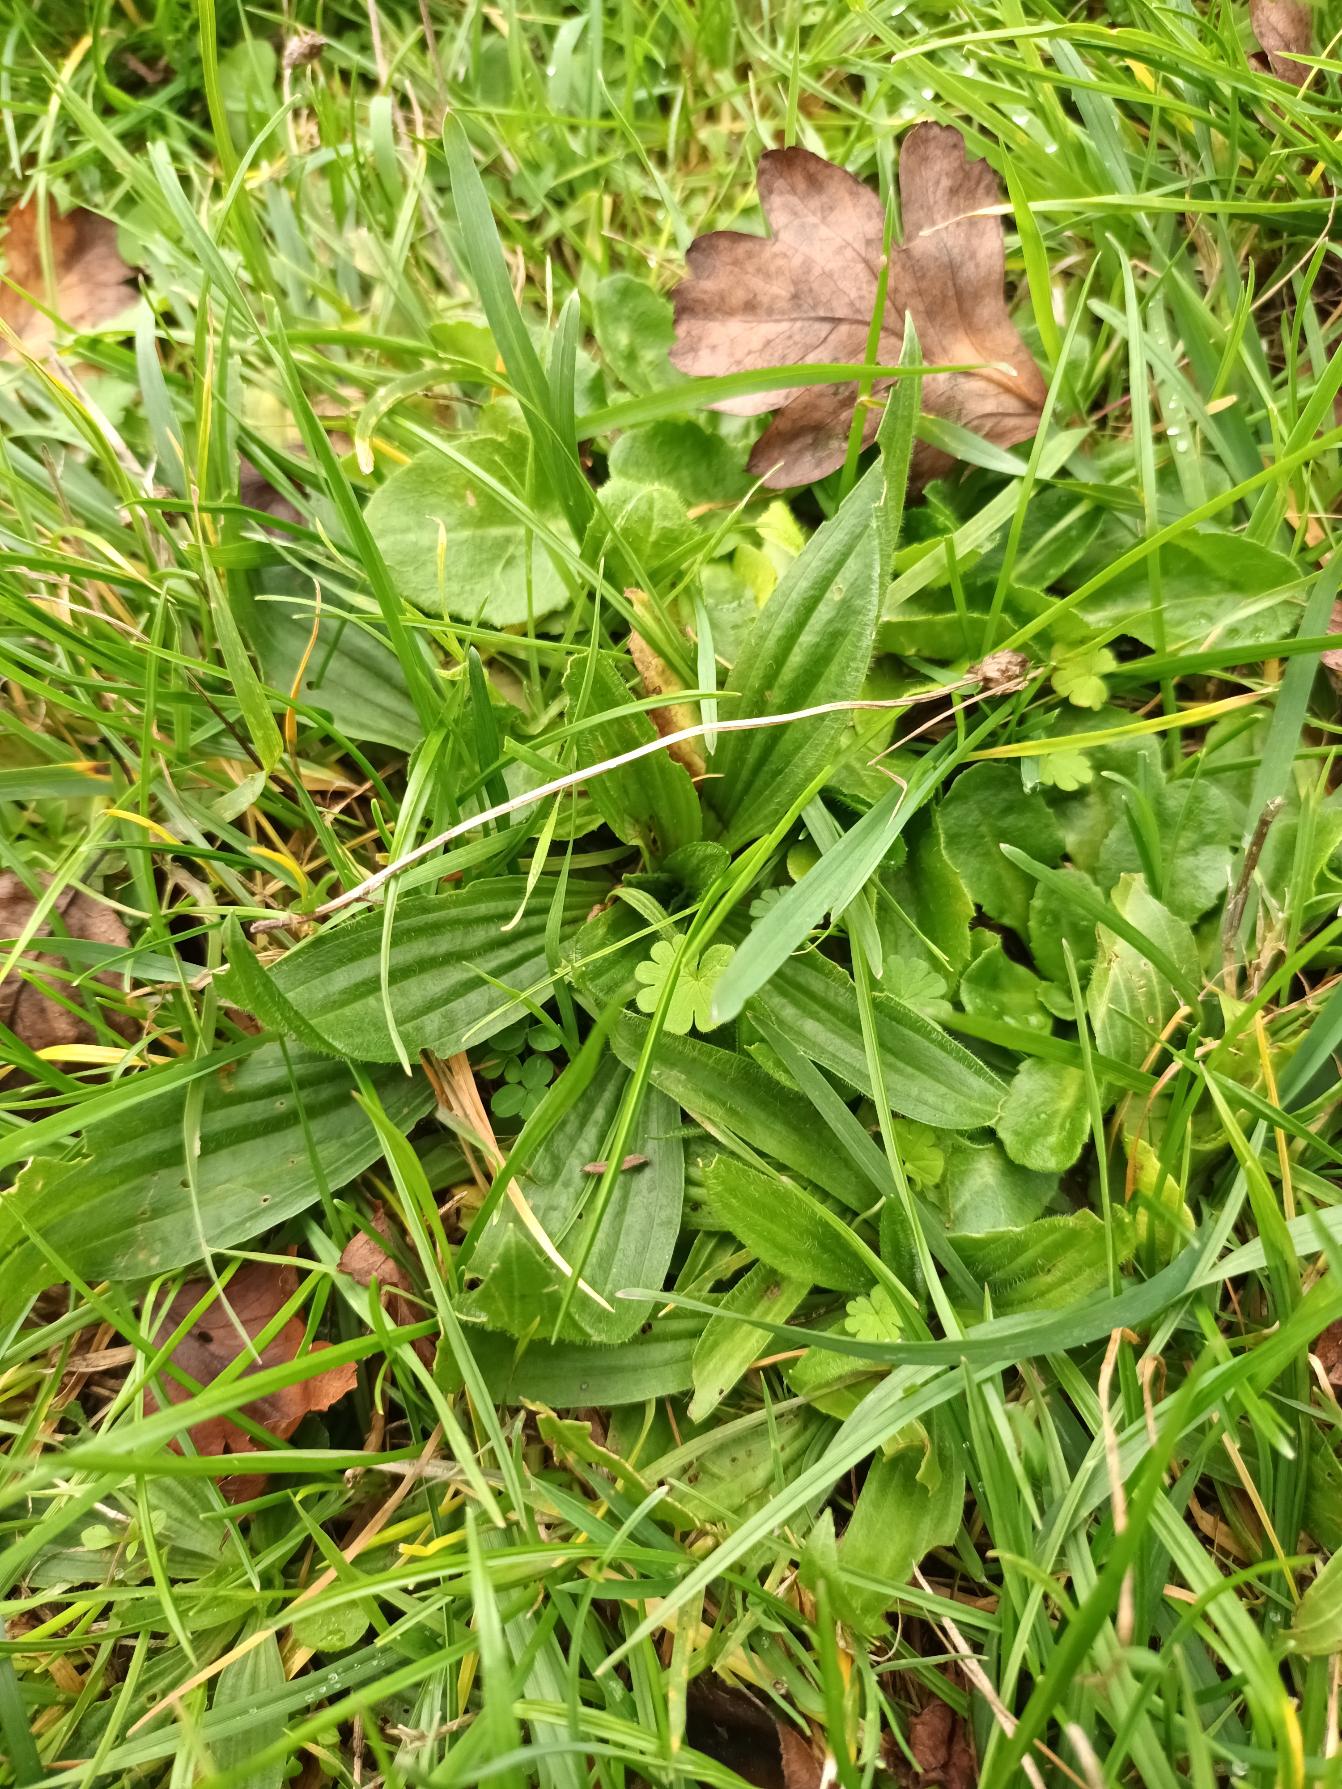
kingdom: Plantae
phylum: Tracheophyta
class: Magnoliopsida
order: Lamiales
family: Plantaginaceae
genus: Plantago
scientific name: Plantago lanceolata
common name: Lancet-vejbred
